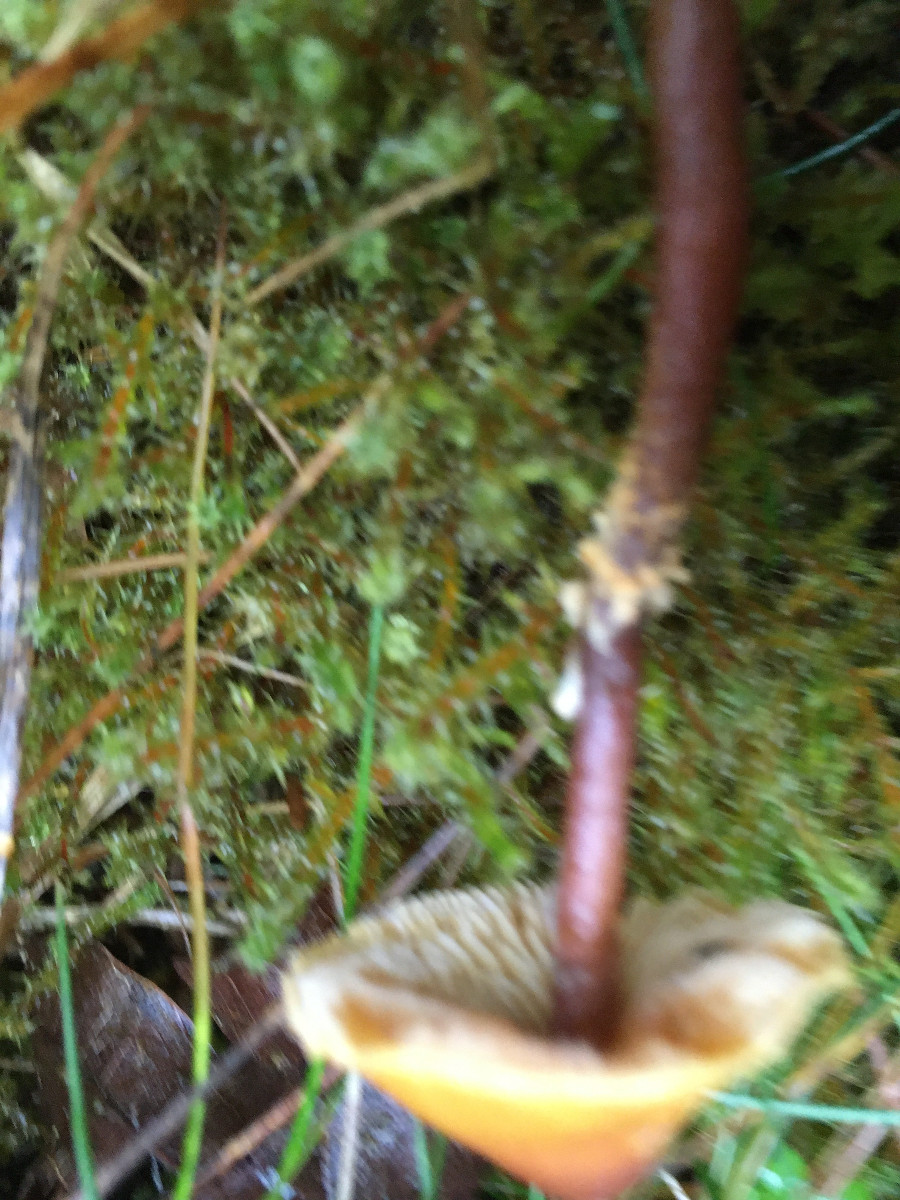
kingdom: Fungi
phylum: Basidiomycota
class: Agaricomycetes
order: Agaricales
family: Tricholomataceae
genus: Cystoderma
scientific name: Cystoderma
